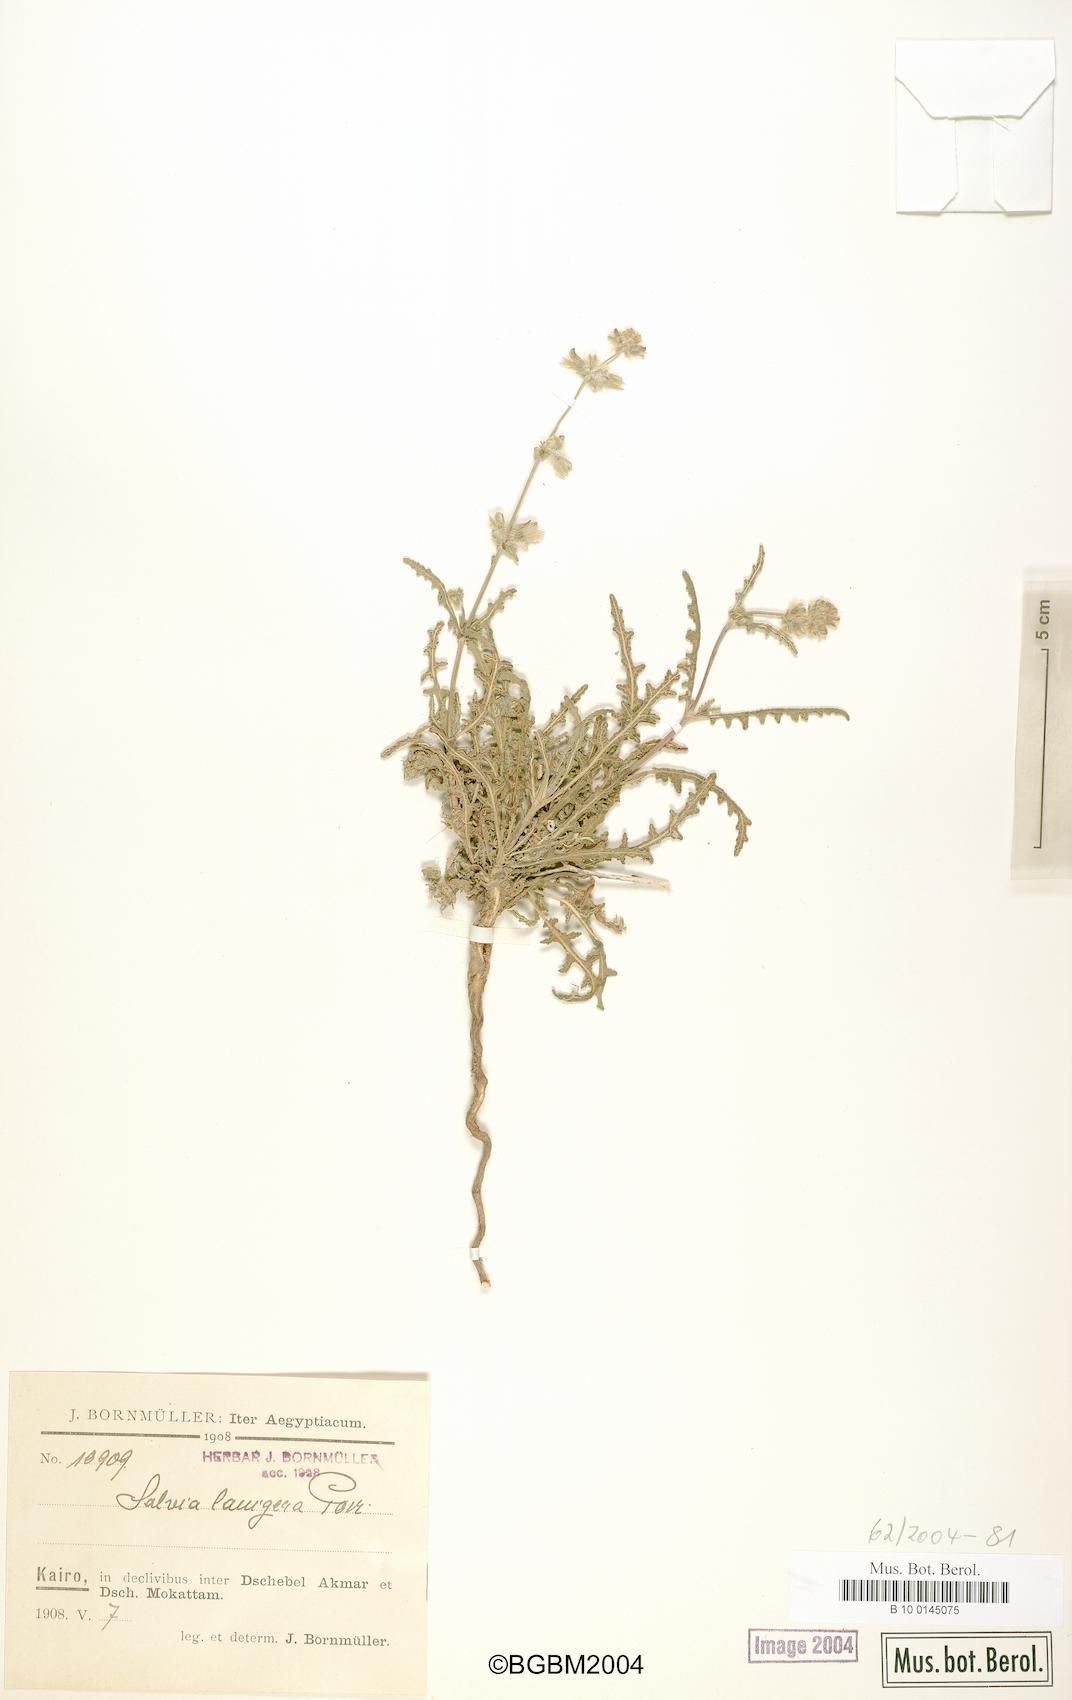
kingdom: Plantae
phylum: Tracheophyta
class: Magnoliopsida
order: Lamiales
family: Lamiaceae
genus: Salvia
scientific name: Salvia lanigera
